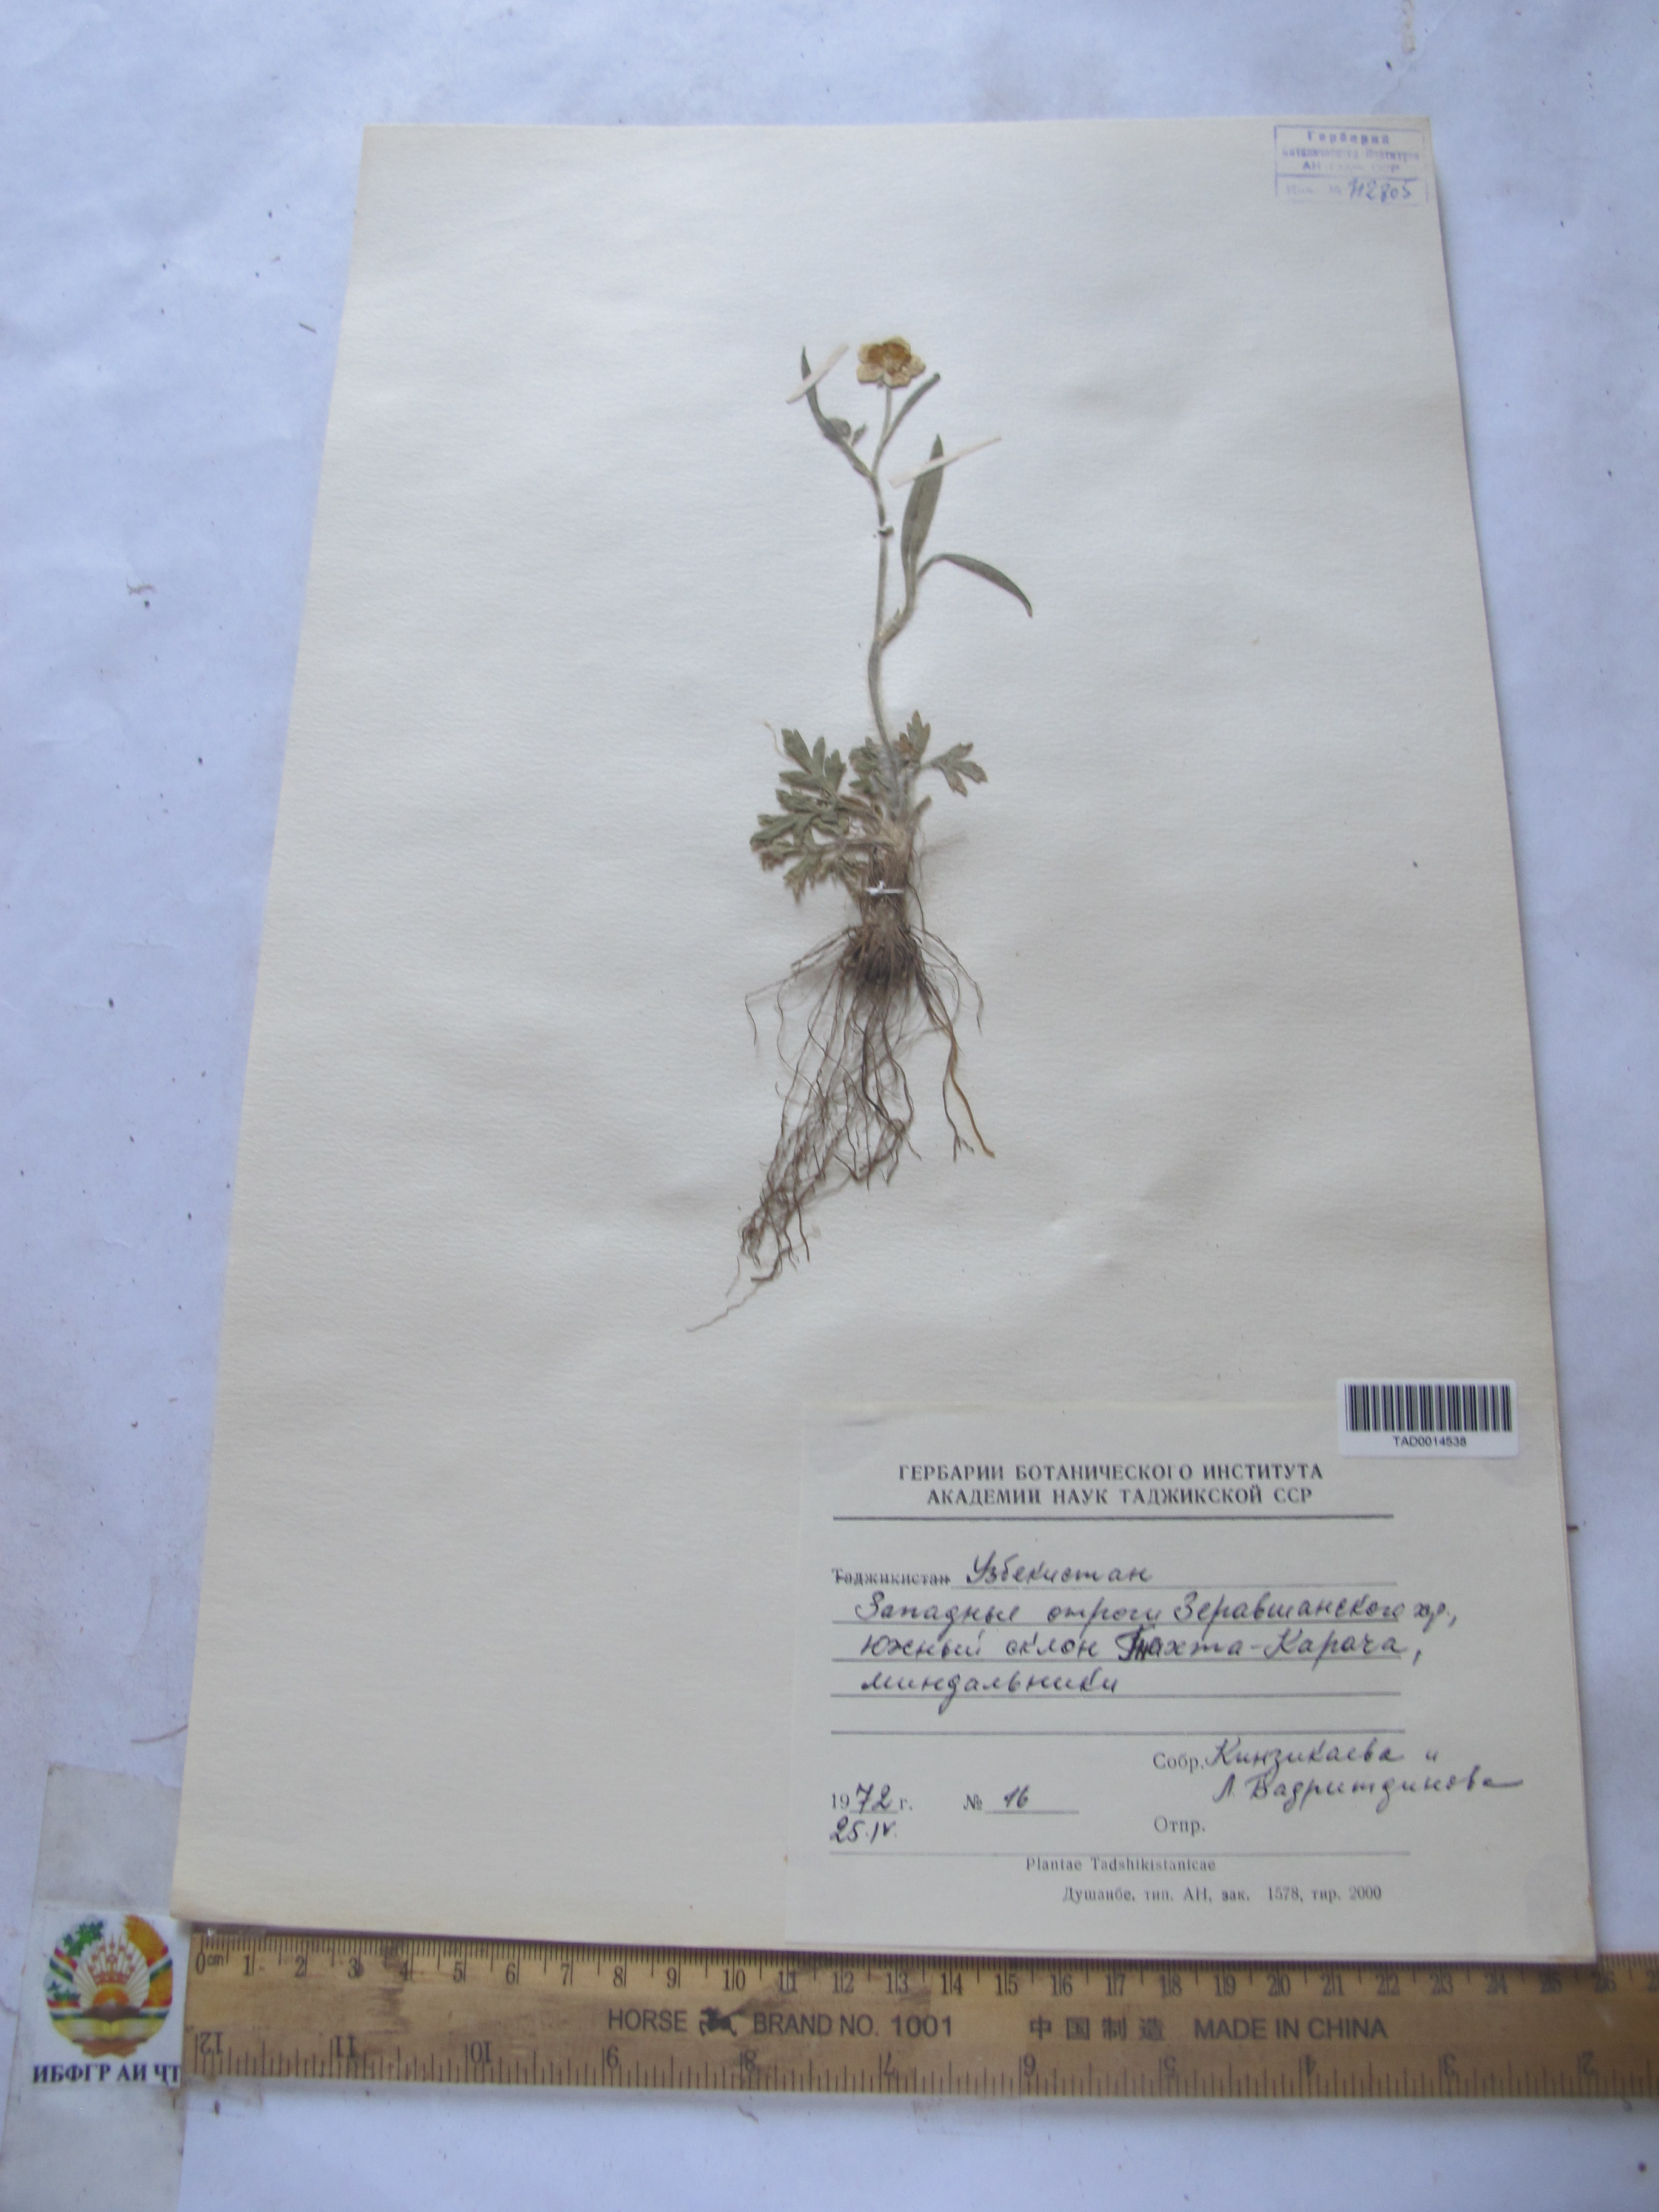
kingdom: Plantae
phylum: Tracheophyta
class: Magnoliopsida
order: Ranunculales
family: Ranunculaceae
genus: Ranunculus
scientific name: Ranunculus leptorrhynchus
